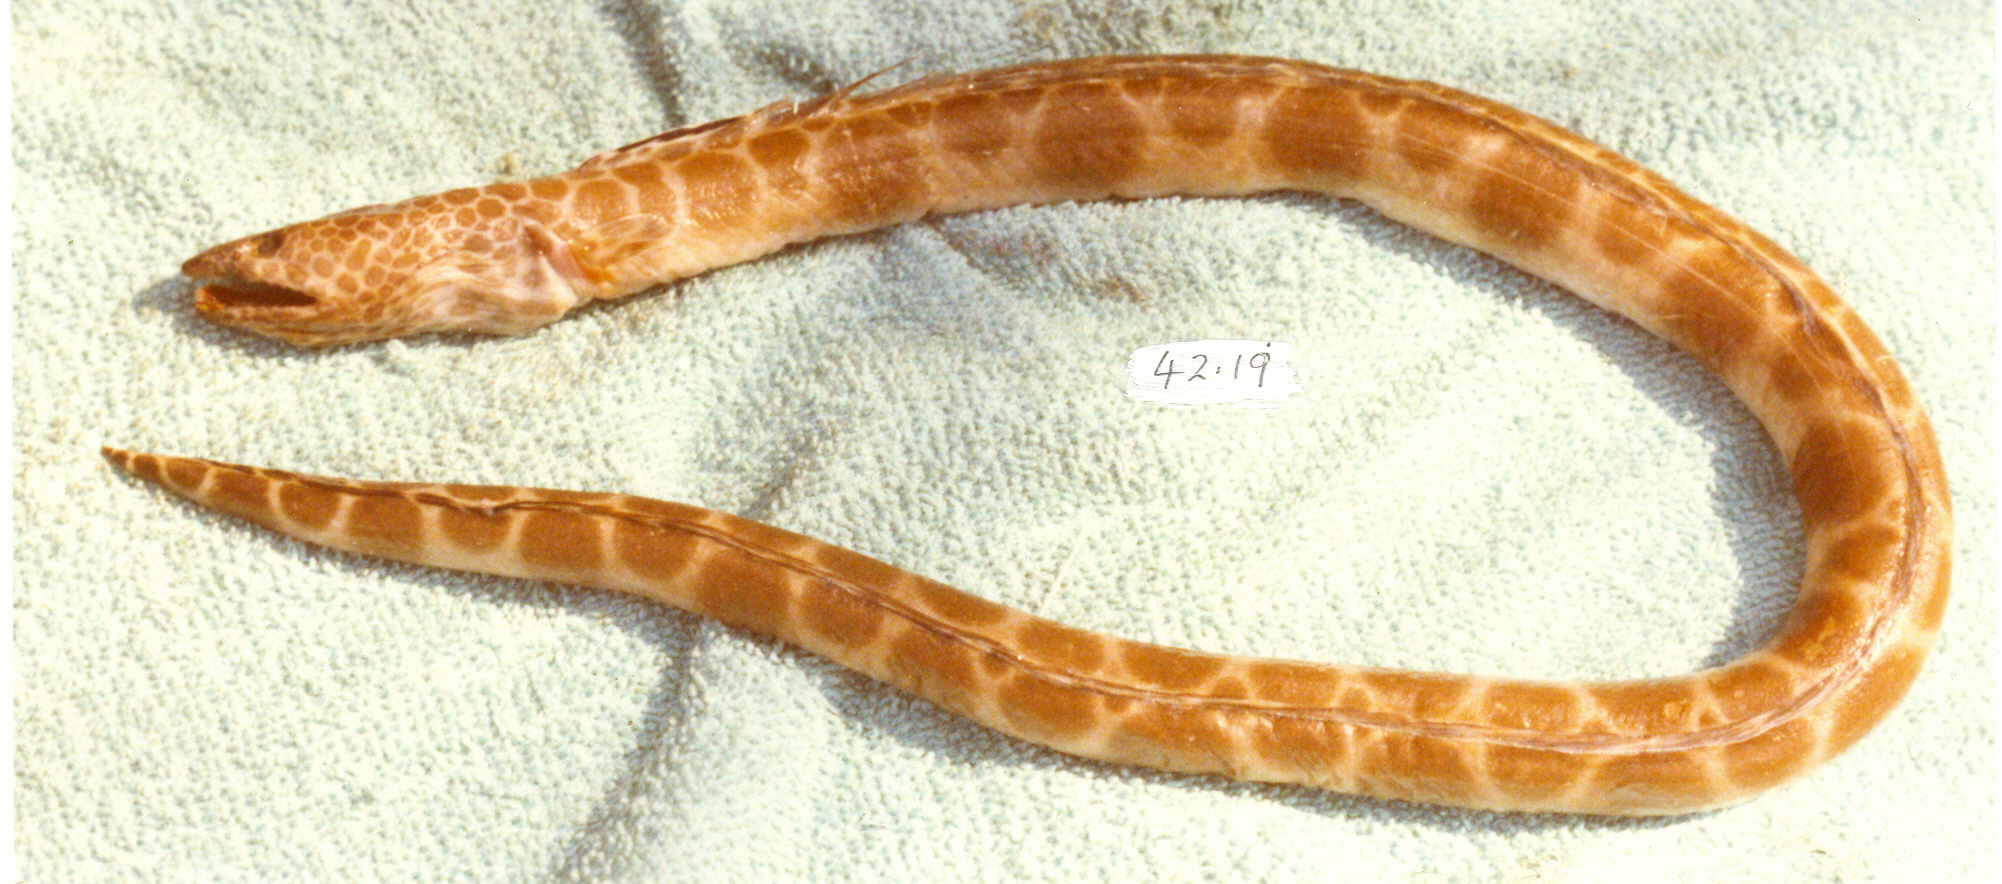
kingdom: Animalia
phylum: Chordata
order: Anguilliformes
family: Ophichthidae
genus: Ophichthus
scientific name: Ophichthus erabo
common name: Blotched snake-eel
